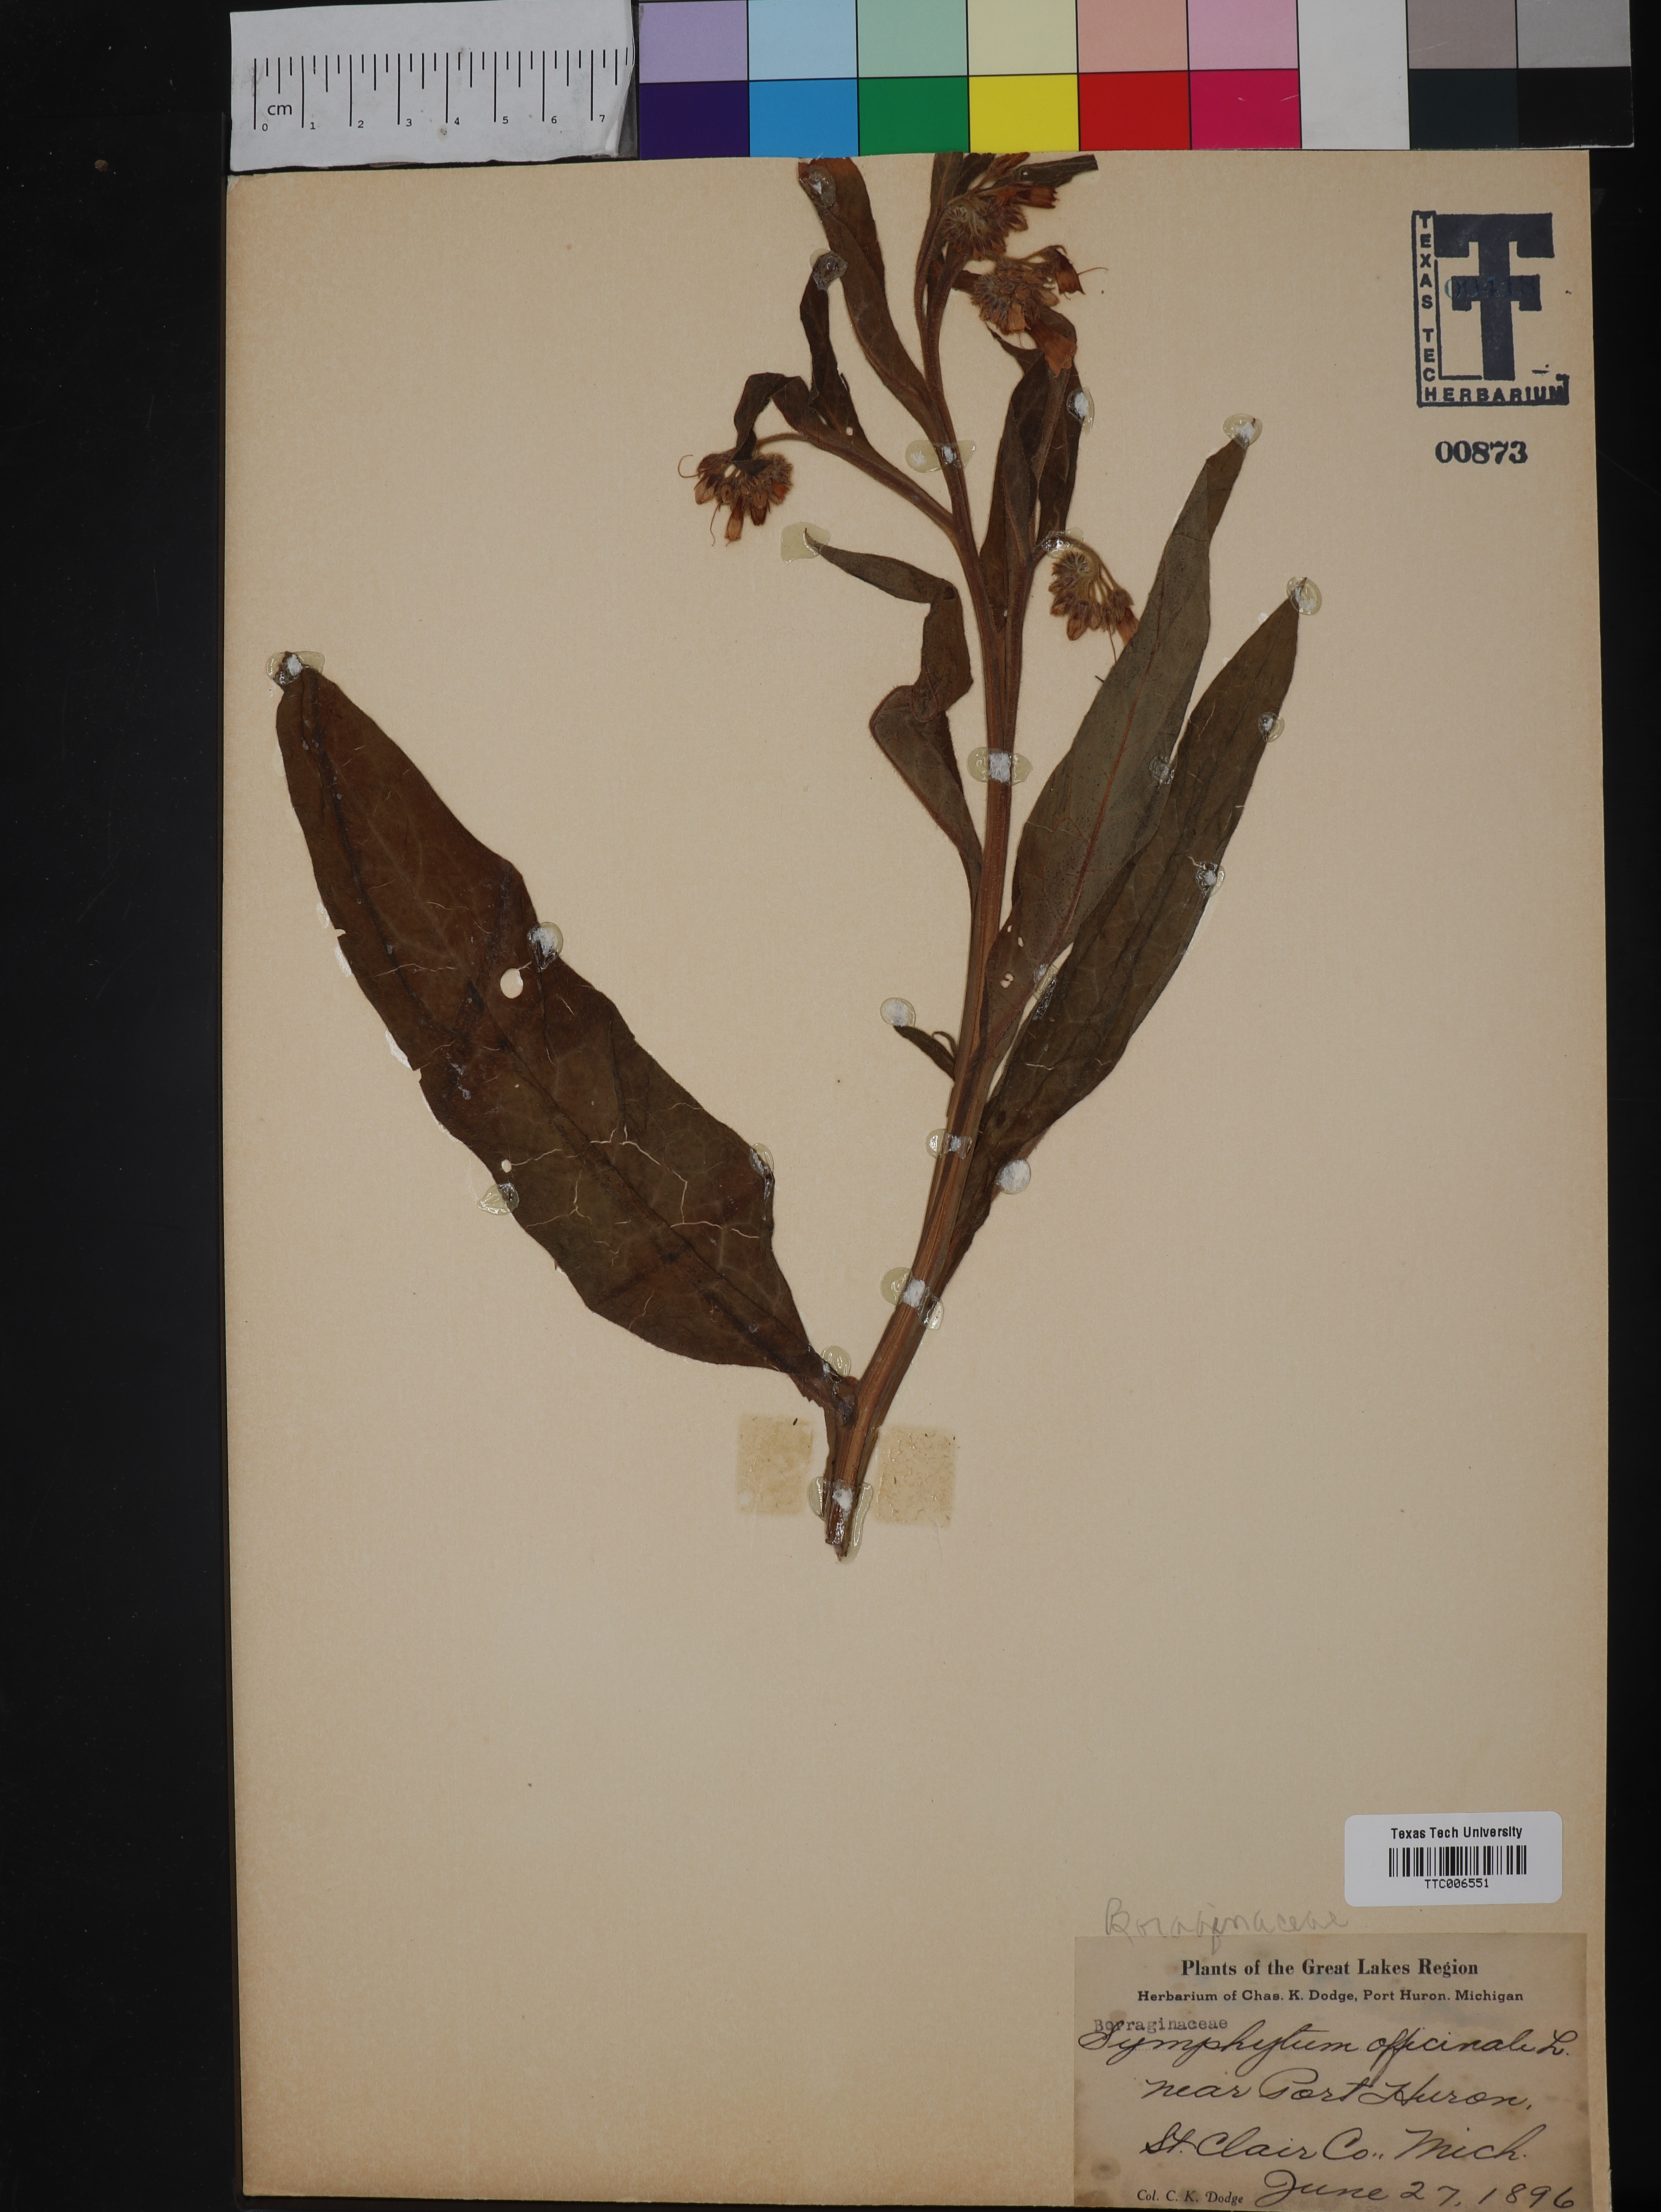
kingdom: Plantae
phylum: Tracheophyta
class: Magnoliopsida
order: Boraginales
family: Boraginaceae
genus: Symphytum
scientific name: Symphytum officinale
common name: Common comfrey
